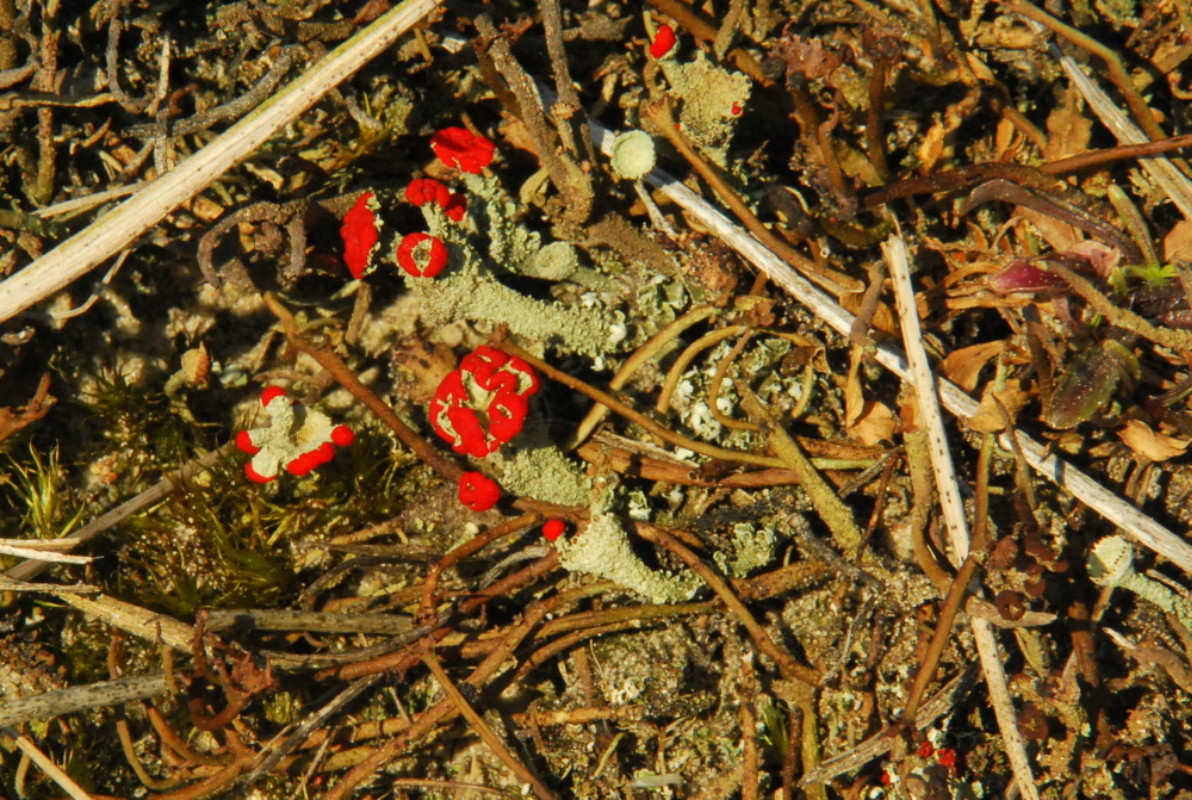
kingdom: Fungi
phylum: Ascomycota
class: Lecanoromycetes
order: Lecanorales
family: Cladoniaceae
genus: Cladonia
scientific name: Cladonia diversa
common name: rød bægerlav
